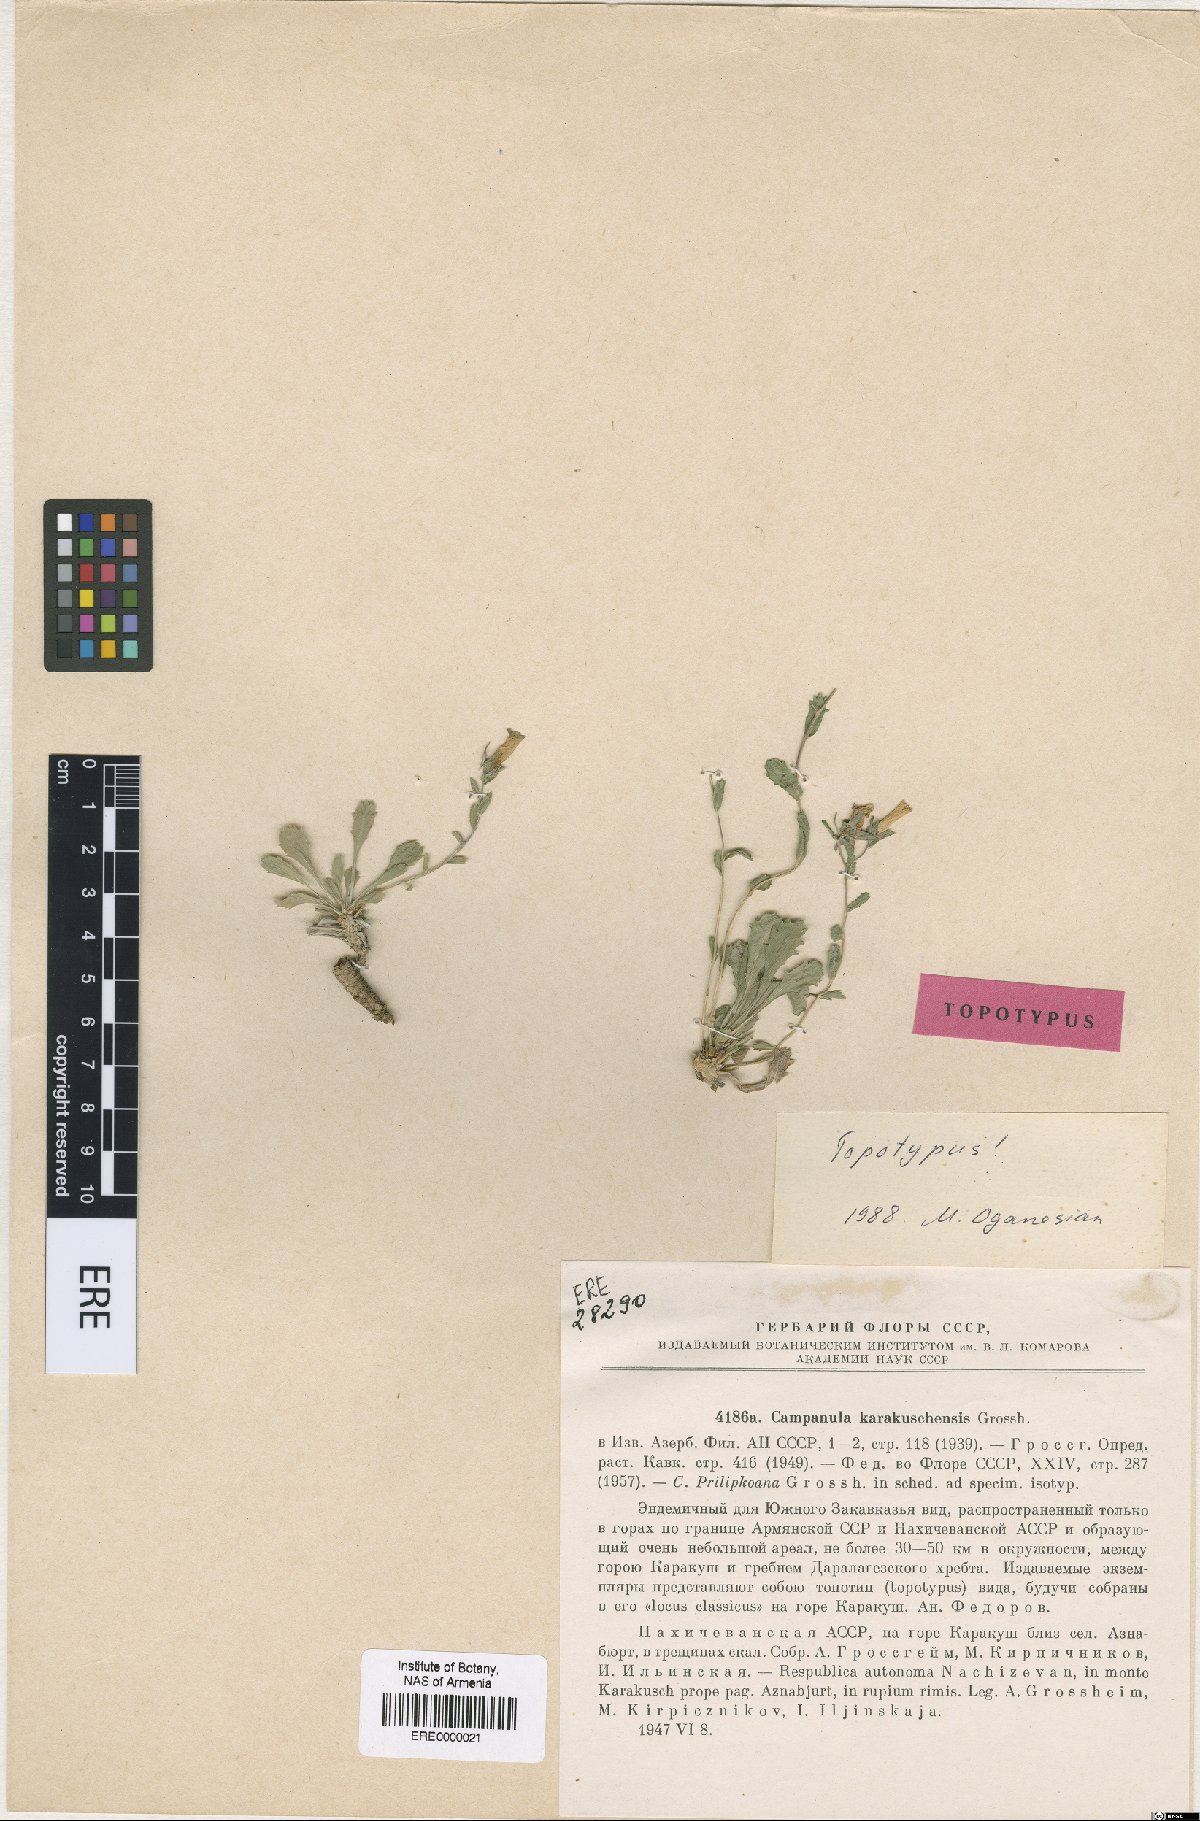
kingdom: Plantae
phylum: Tracheophyta
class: Magnoliopsida
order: Asterales
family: Campanulaceae
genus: Campanula
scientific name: Campanula karakuschensis
